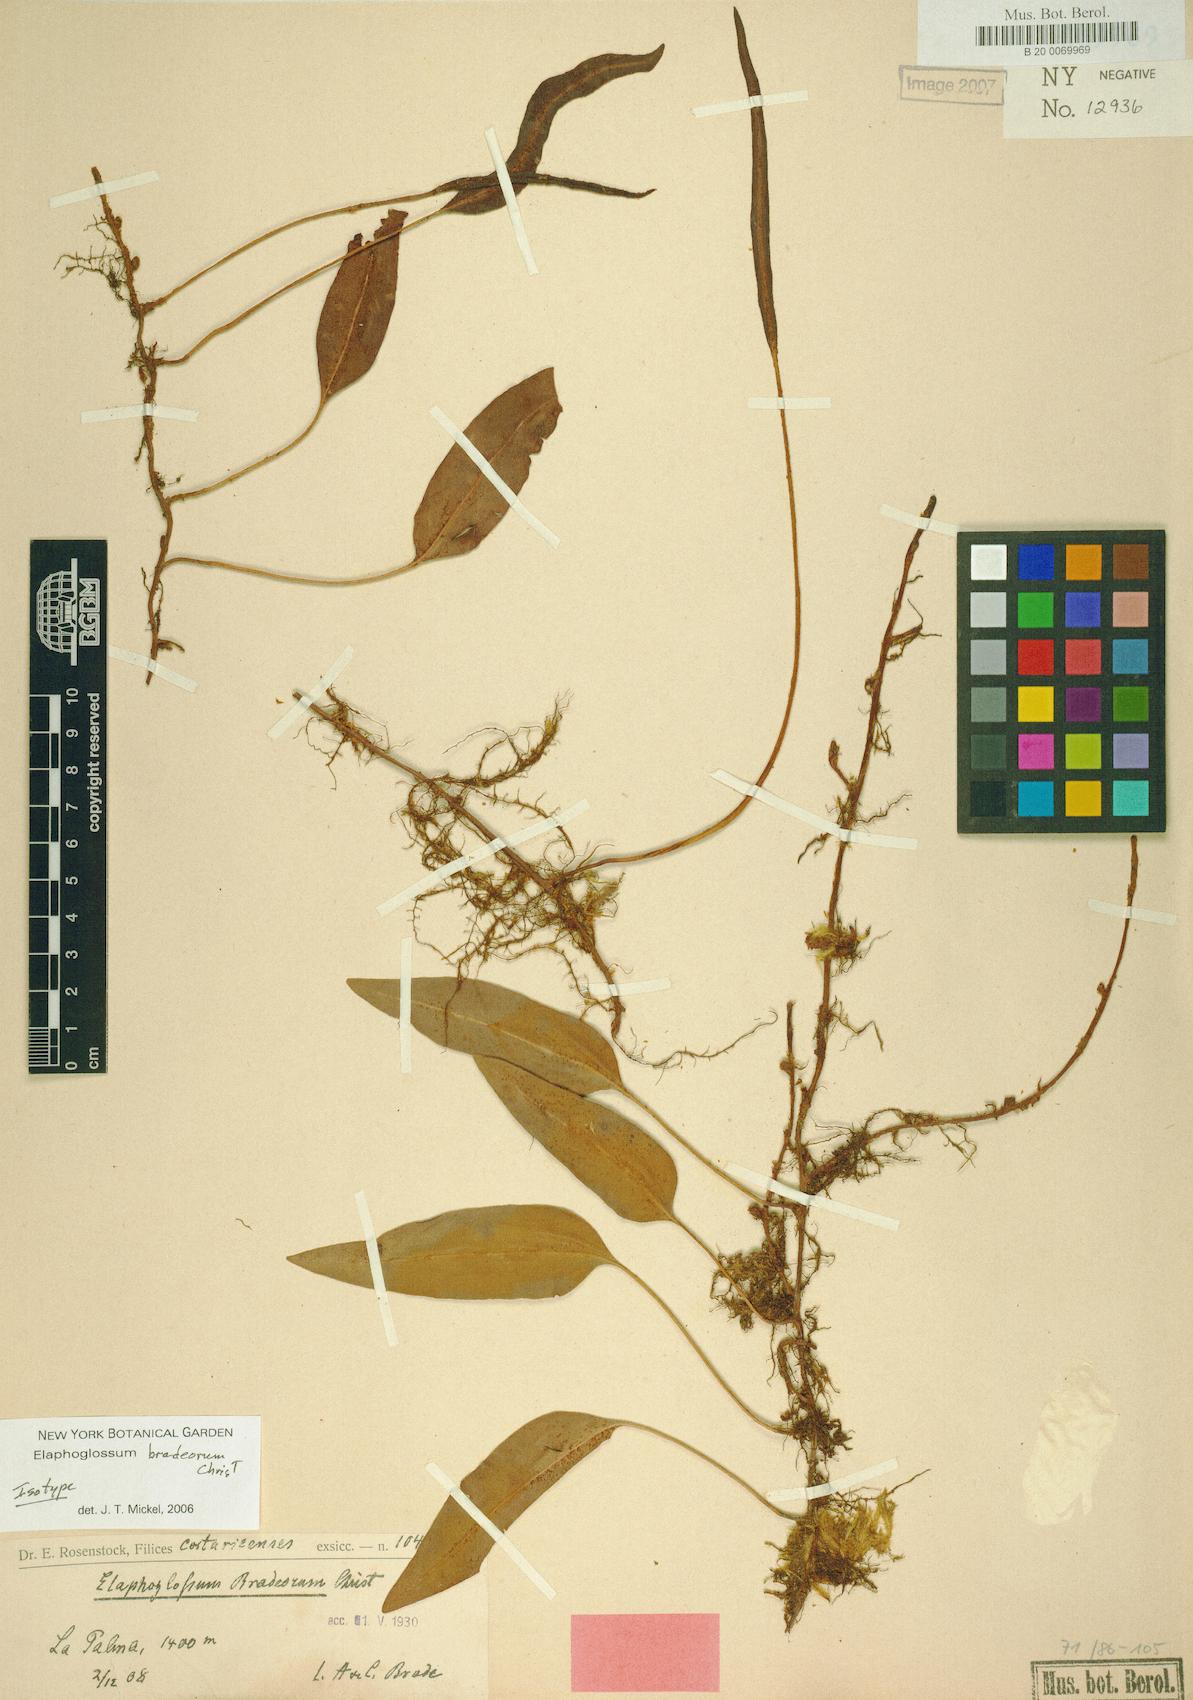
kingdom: Plantae
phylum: Tracheophyta
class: Polypodiopsida
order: Polypodiales
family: Dryopteridaceae
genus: Elaphoglossum
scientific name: Elaphoglossum proximum
